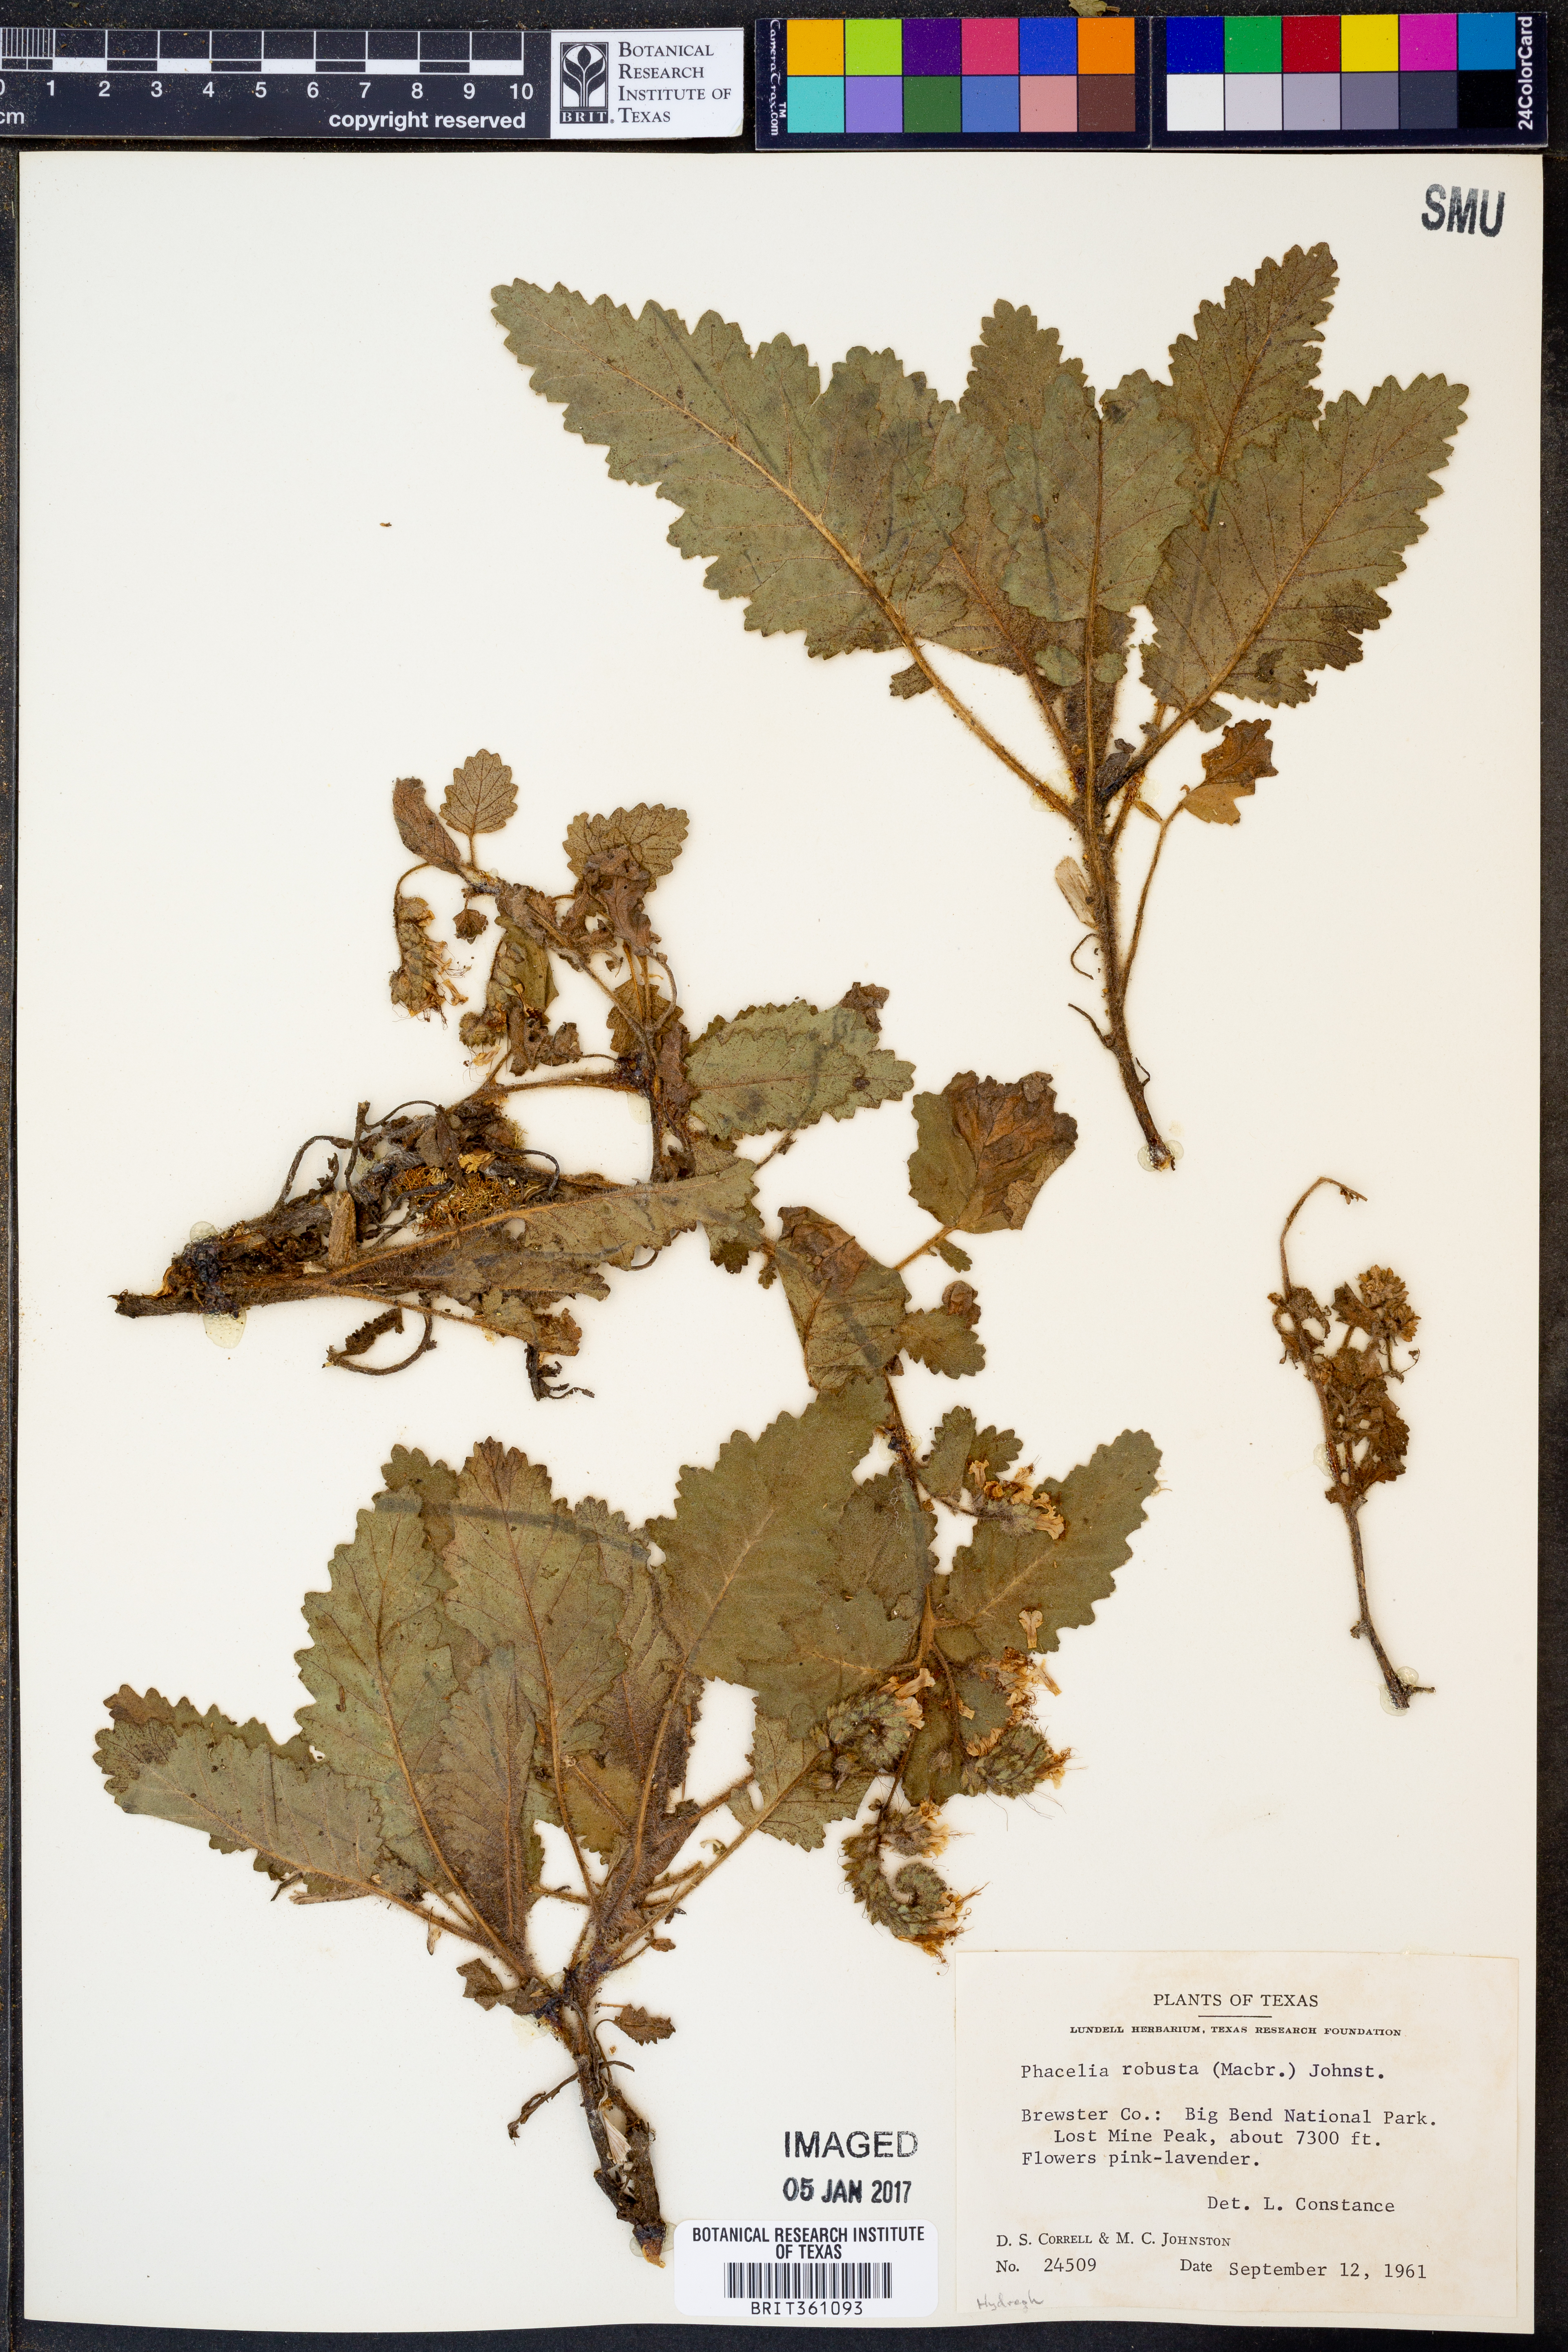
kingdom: Plantae
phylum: Tracheophyta
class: Magnoliopsida
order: Boraginales
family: Hydrophyllaceae
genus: Phacelia
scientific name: Phacelia robusta
